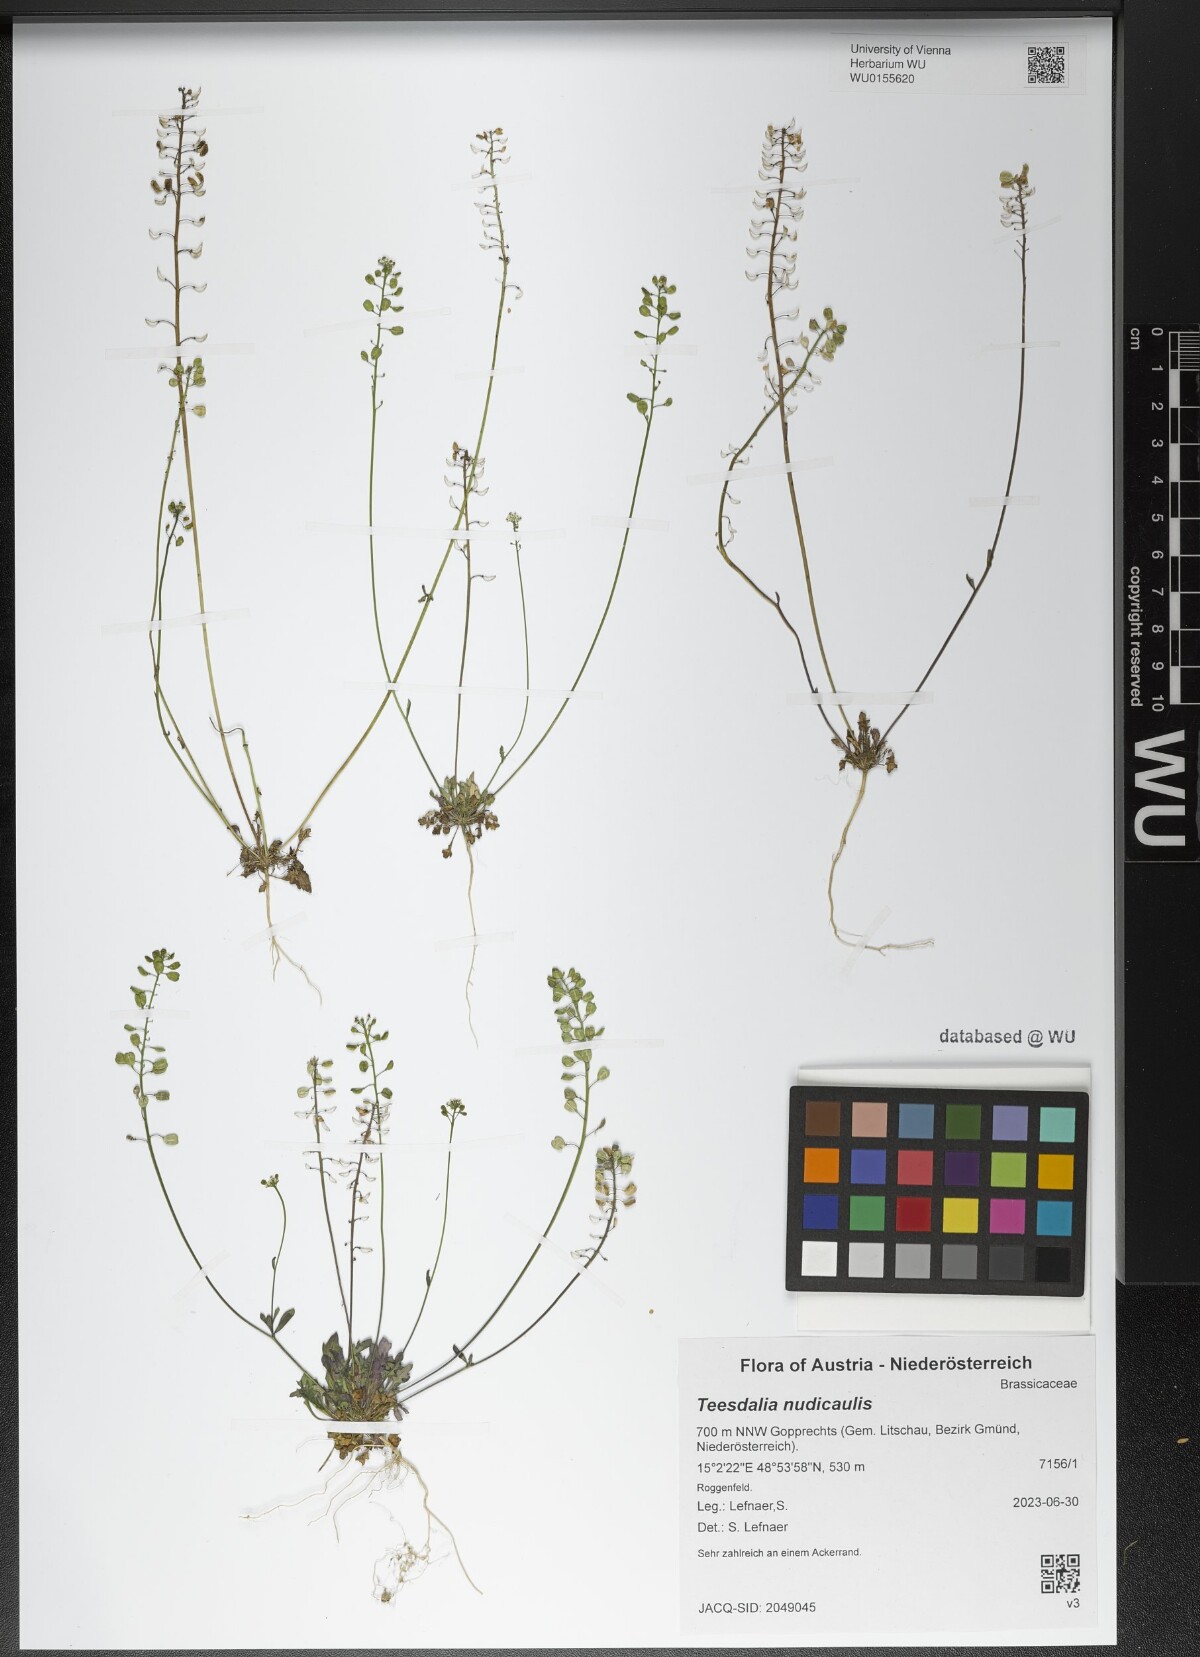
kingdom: Plantae
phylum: Tracheophyta
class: Magnoliopsida
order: Brassicales
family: Brassicaceae
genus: Teesdalia
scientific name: Teesdalia nudicaulis
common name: Shepherd's cress
